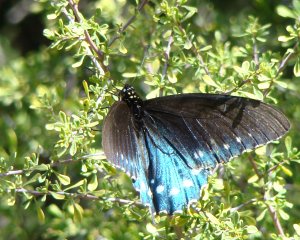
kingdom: Animalia
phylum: Arthropoda
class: Insecta
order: Lepidoptera
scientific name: Lepidoptera
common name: Butterflies
